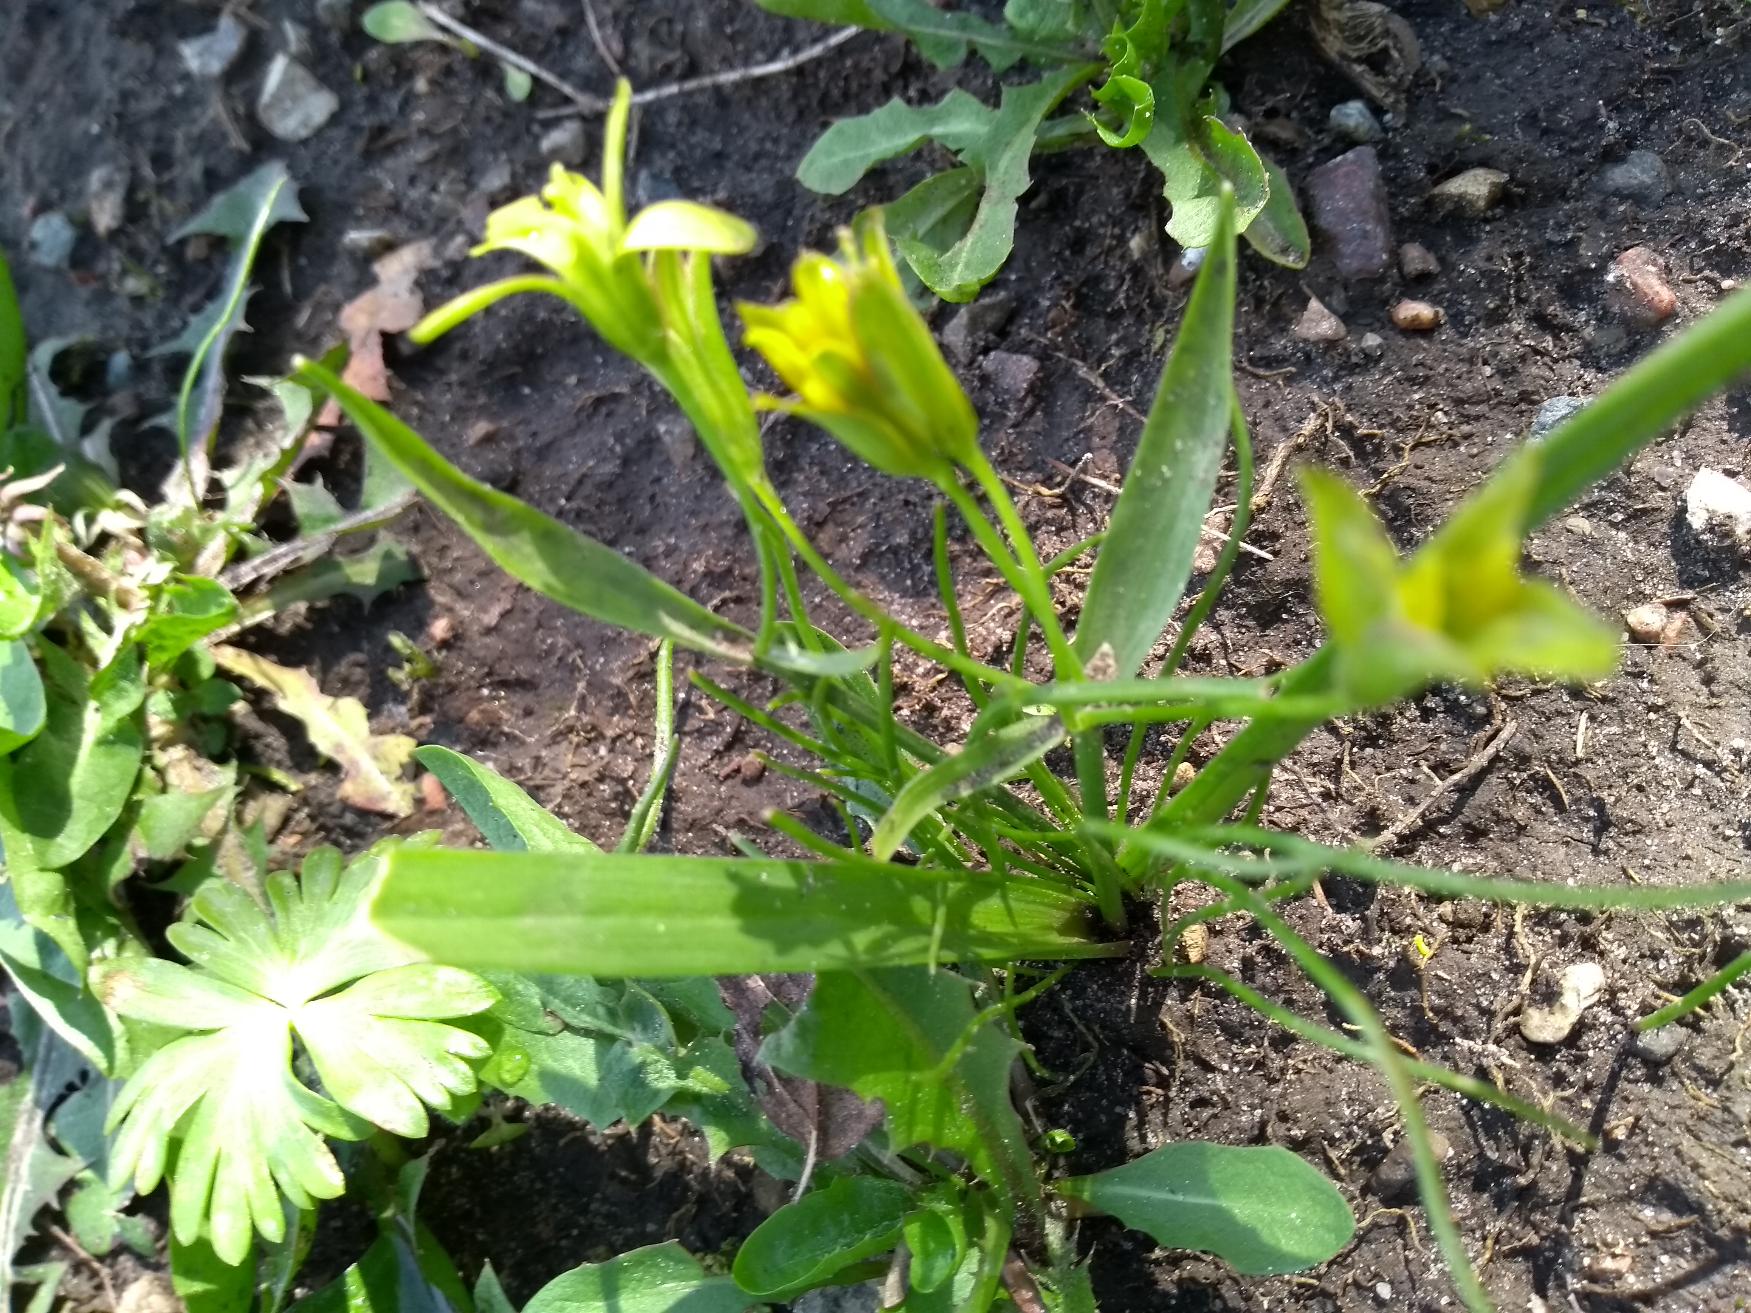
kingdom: Plantae
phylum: Tracheophyta
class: Liliopsida
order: Liliales
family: Liliaceae
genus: Gagea
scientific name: Gagea lutea
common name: Almindelig guldstjerne
